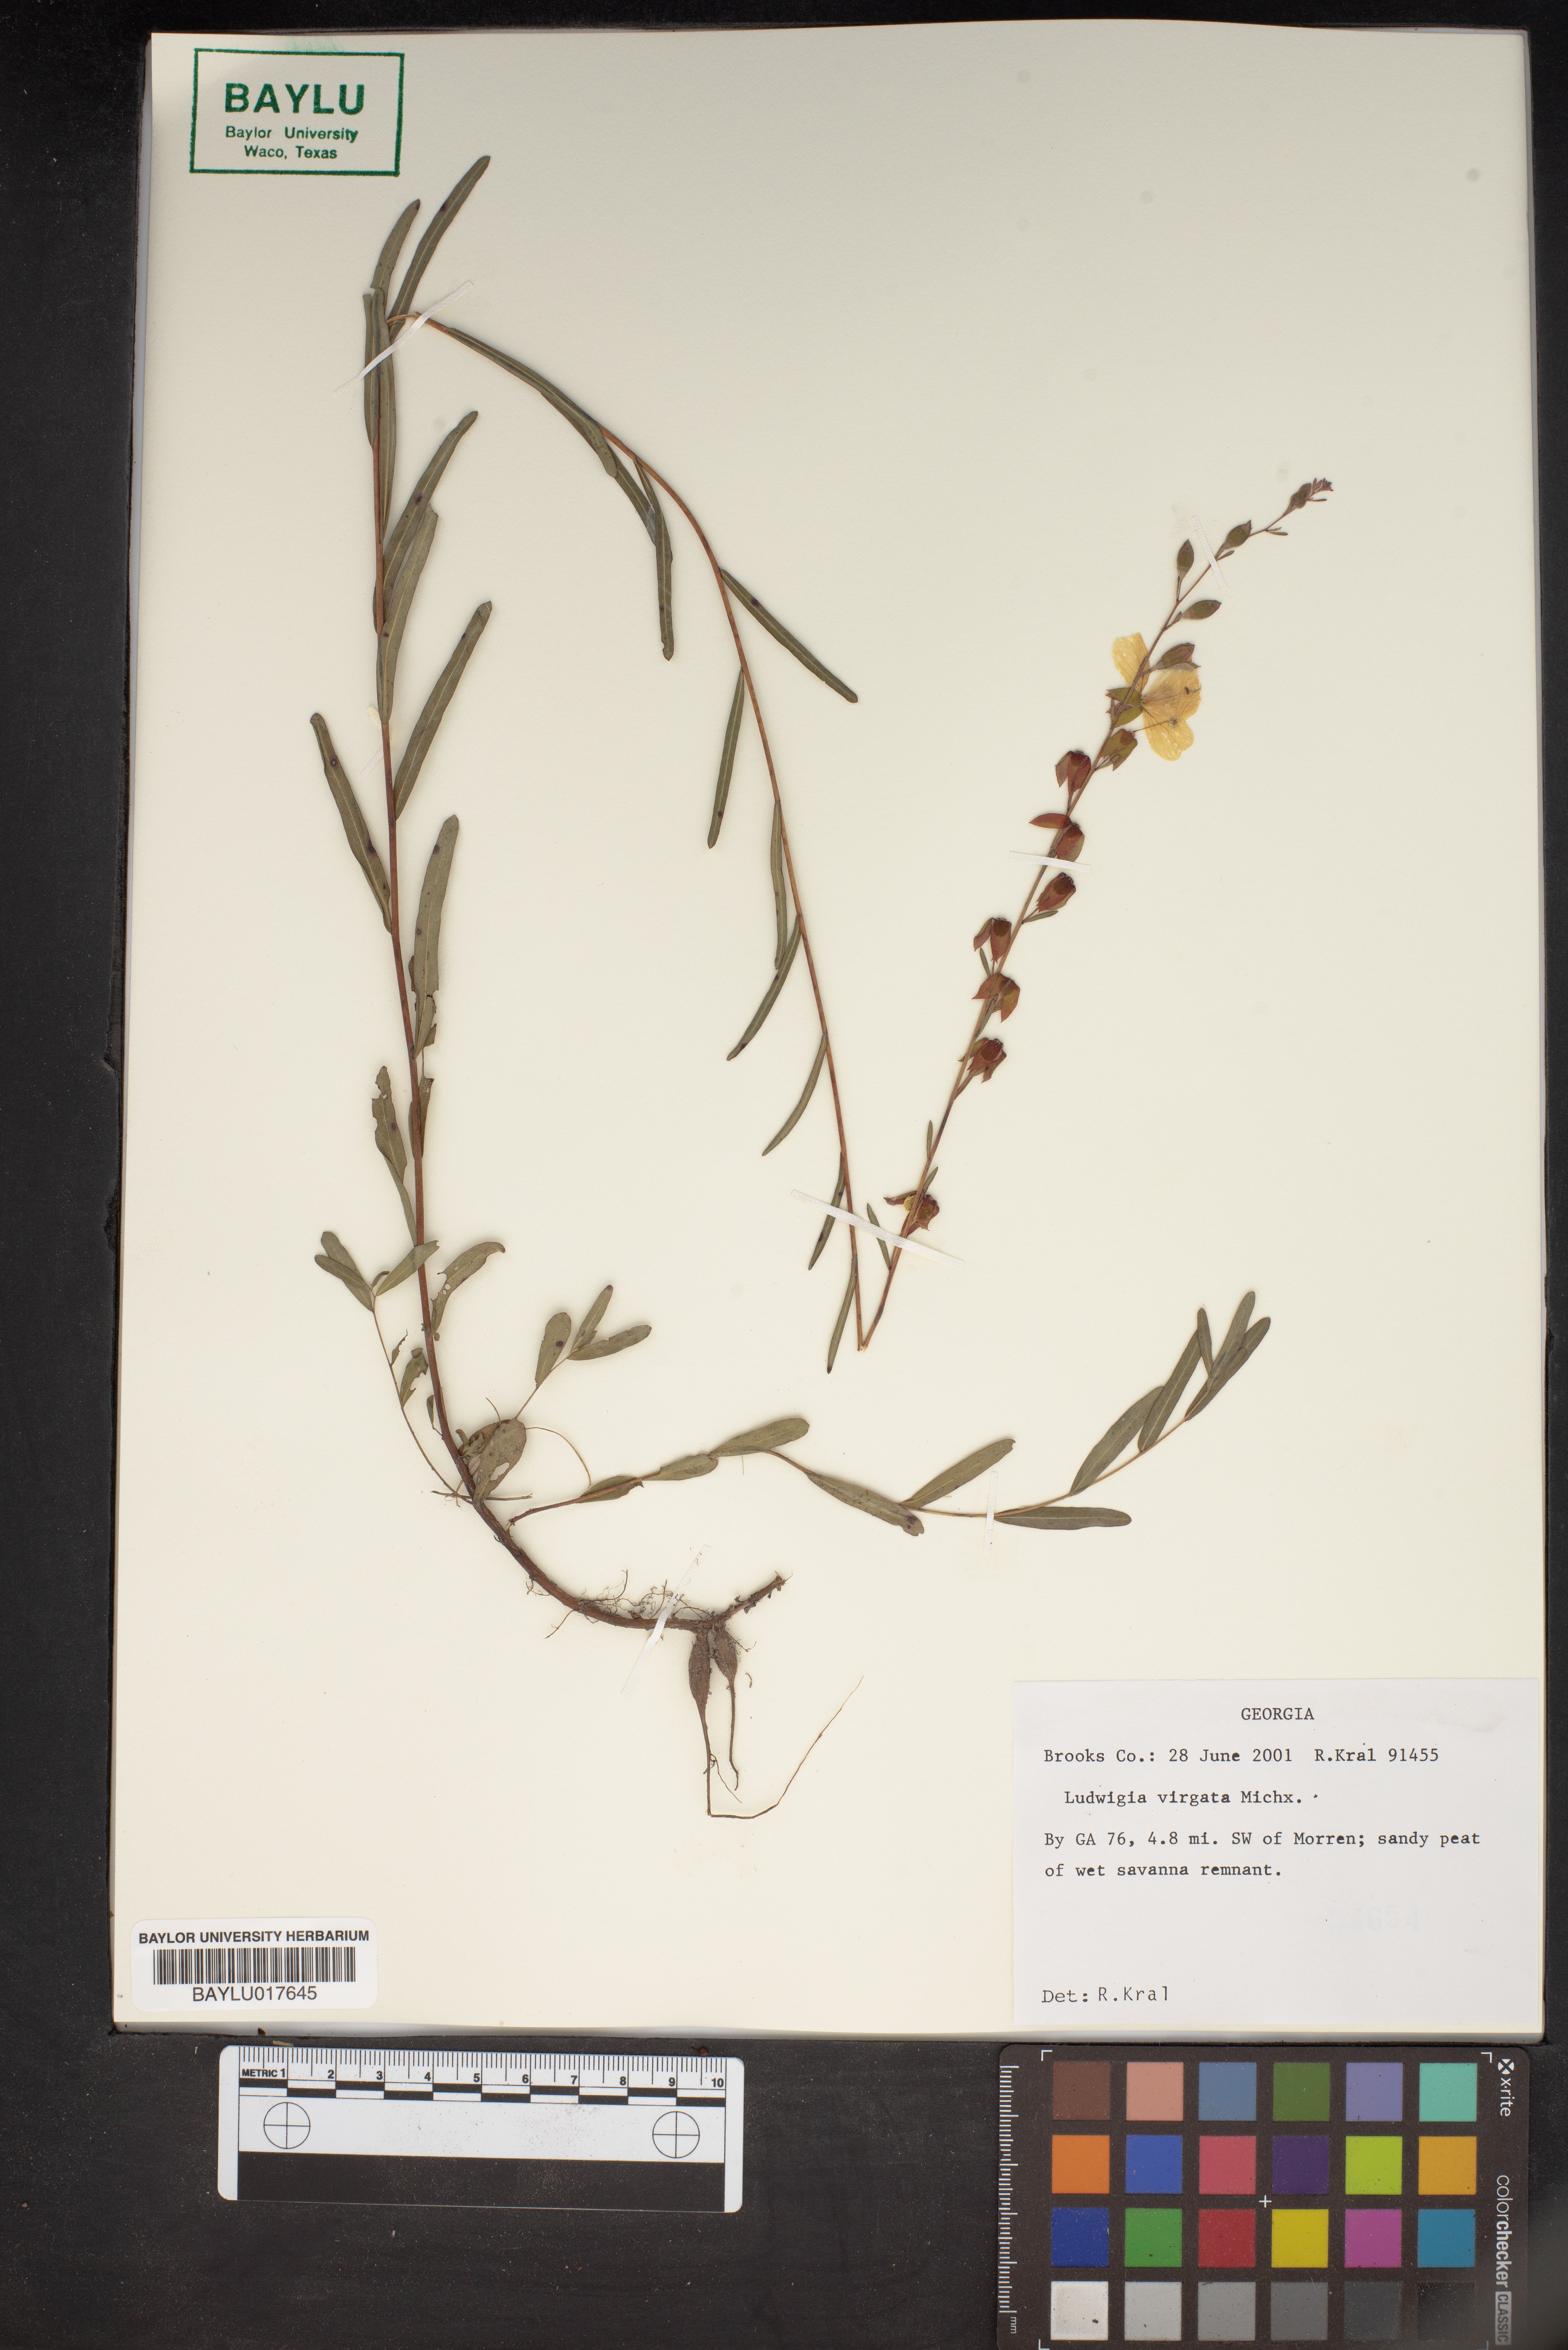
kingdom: Plantae
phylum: Tracheophyta
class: Magnoliopsida
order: Myrtales
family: Onagraceae
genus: Ludwigia
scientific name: Ludwigia virgata
